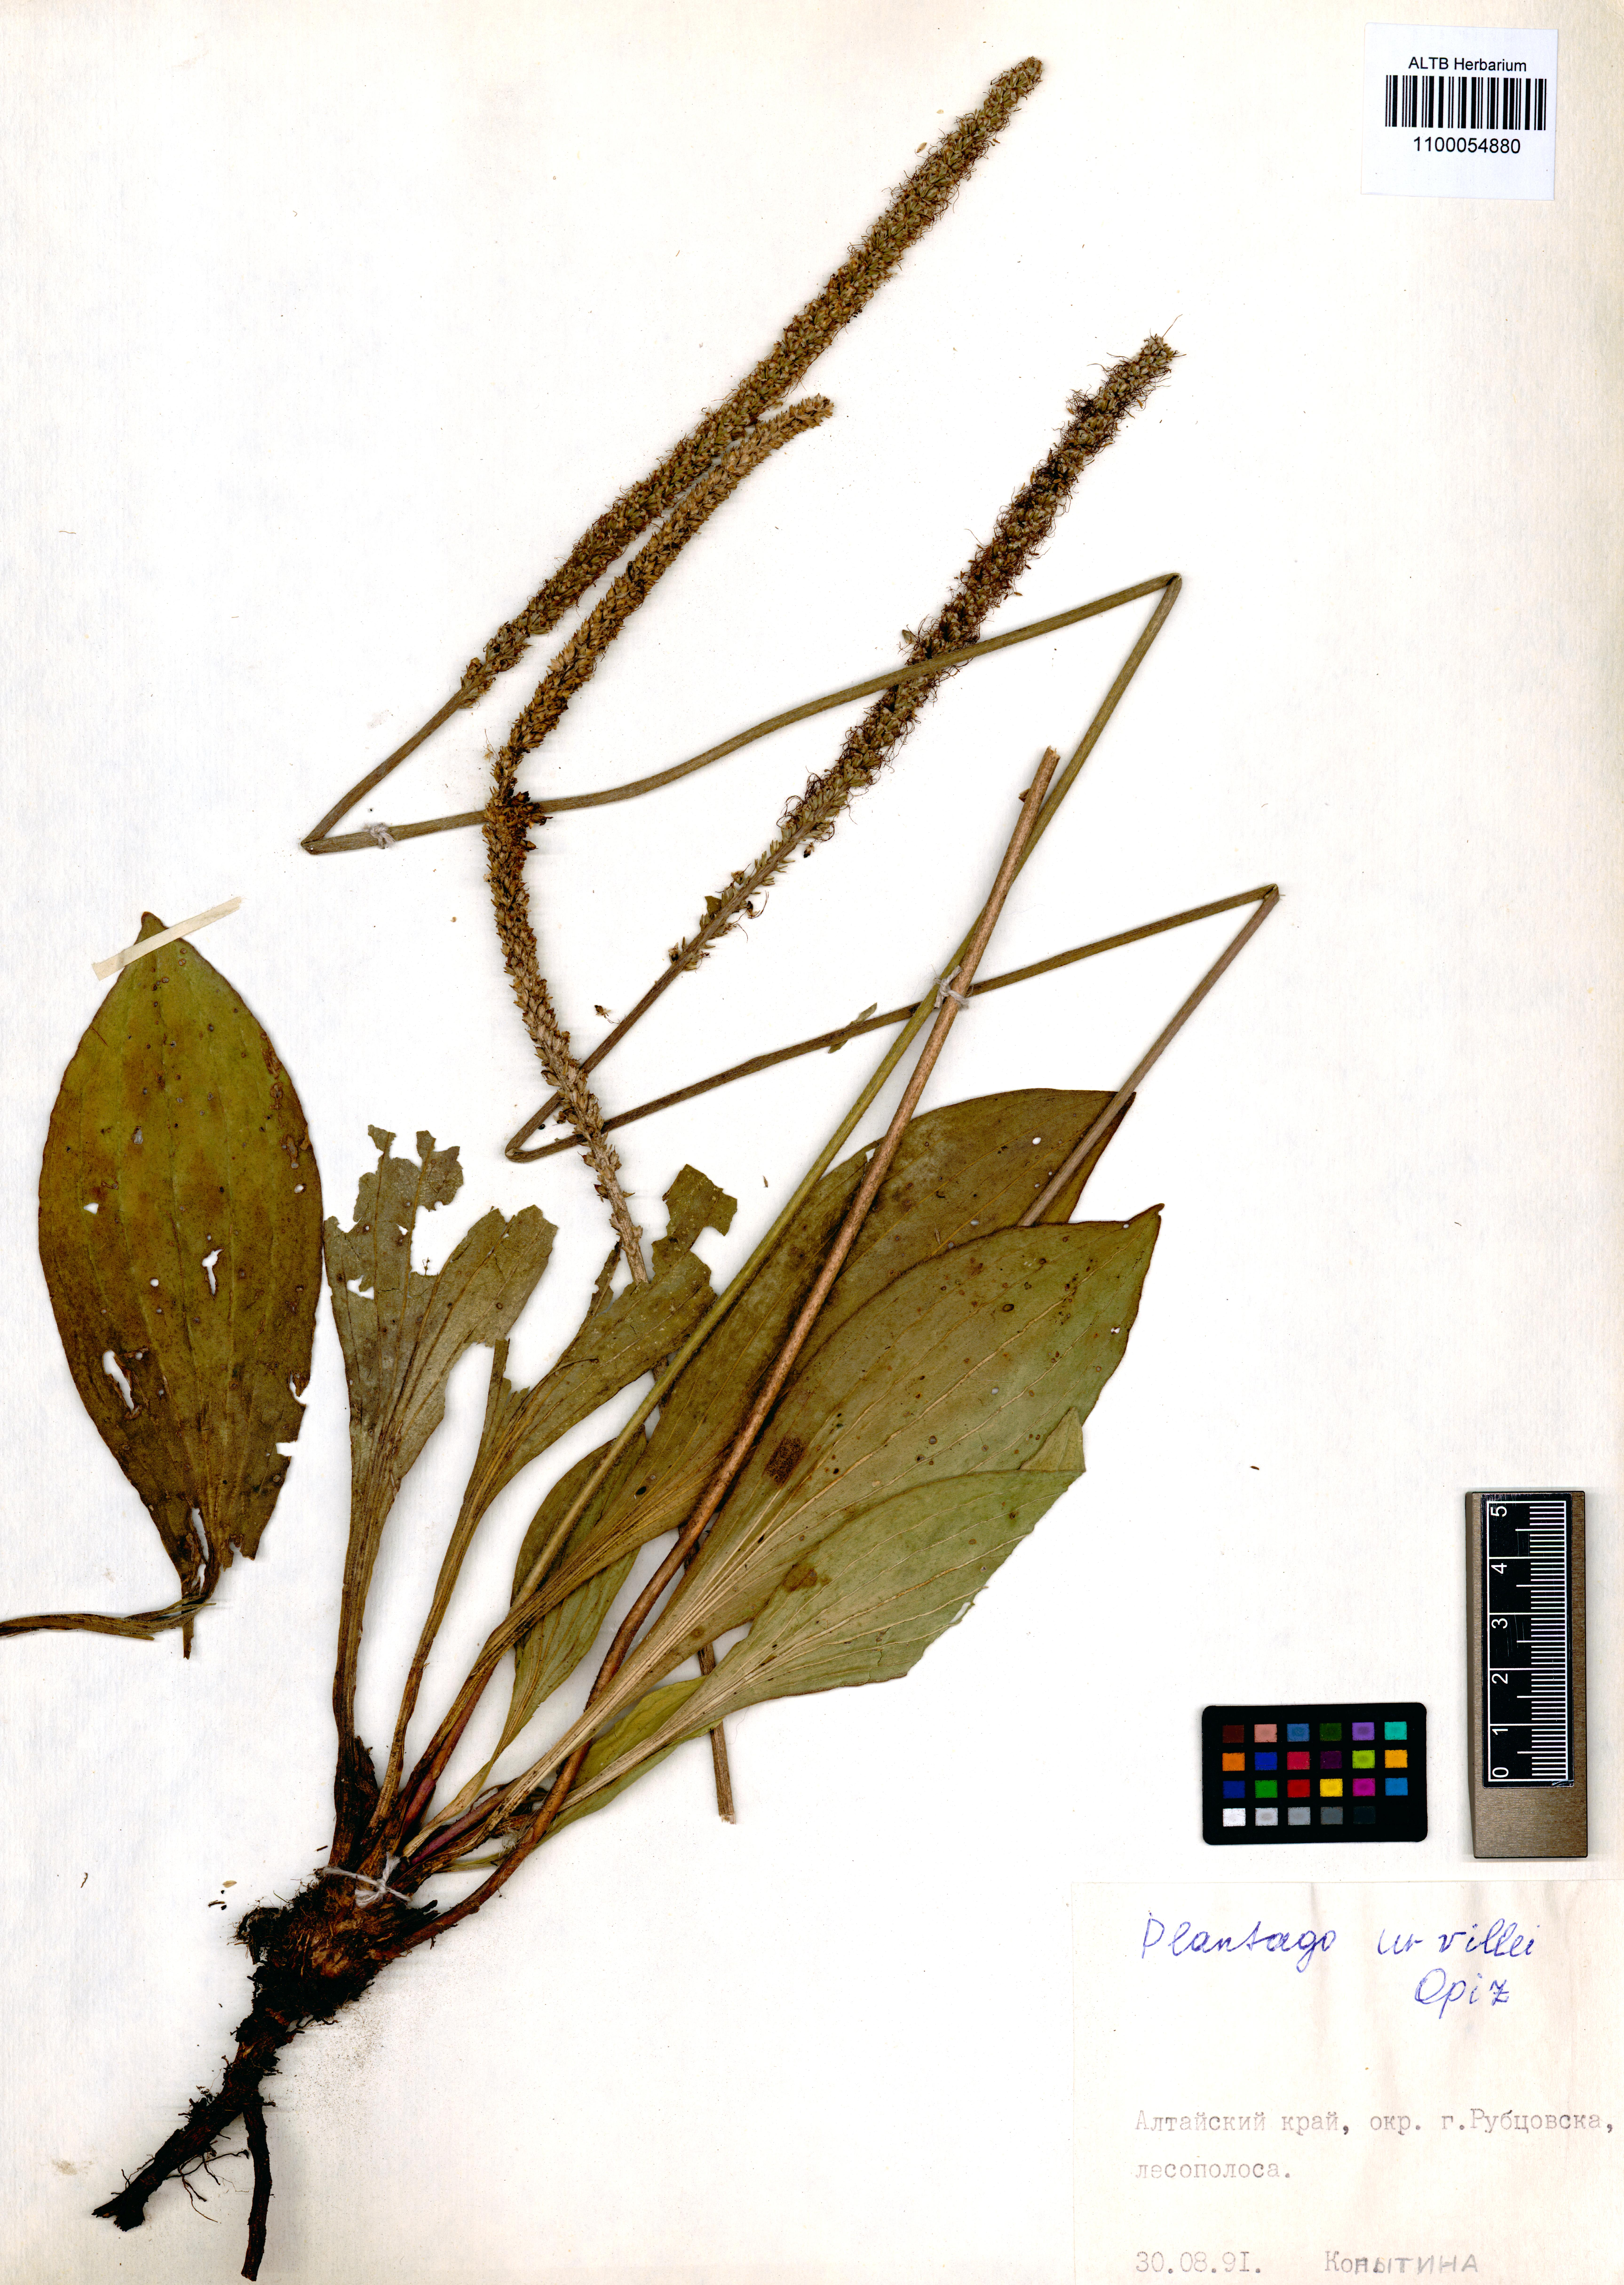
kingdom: Plantae
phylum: Tracheophyta
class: Magnoliopsida
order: Lamiales
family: Plantaginaceae
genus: Plantago
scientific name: Plantago urvillei
